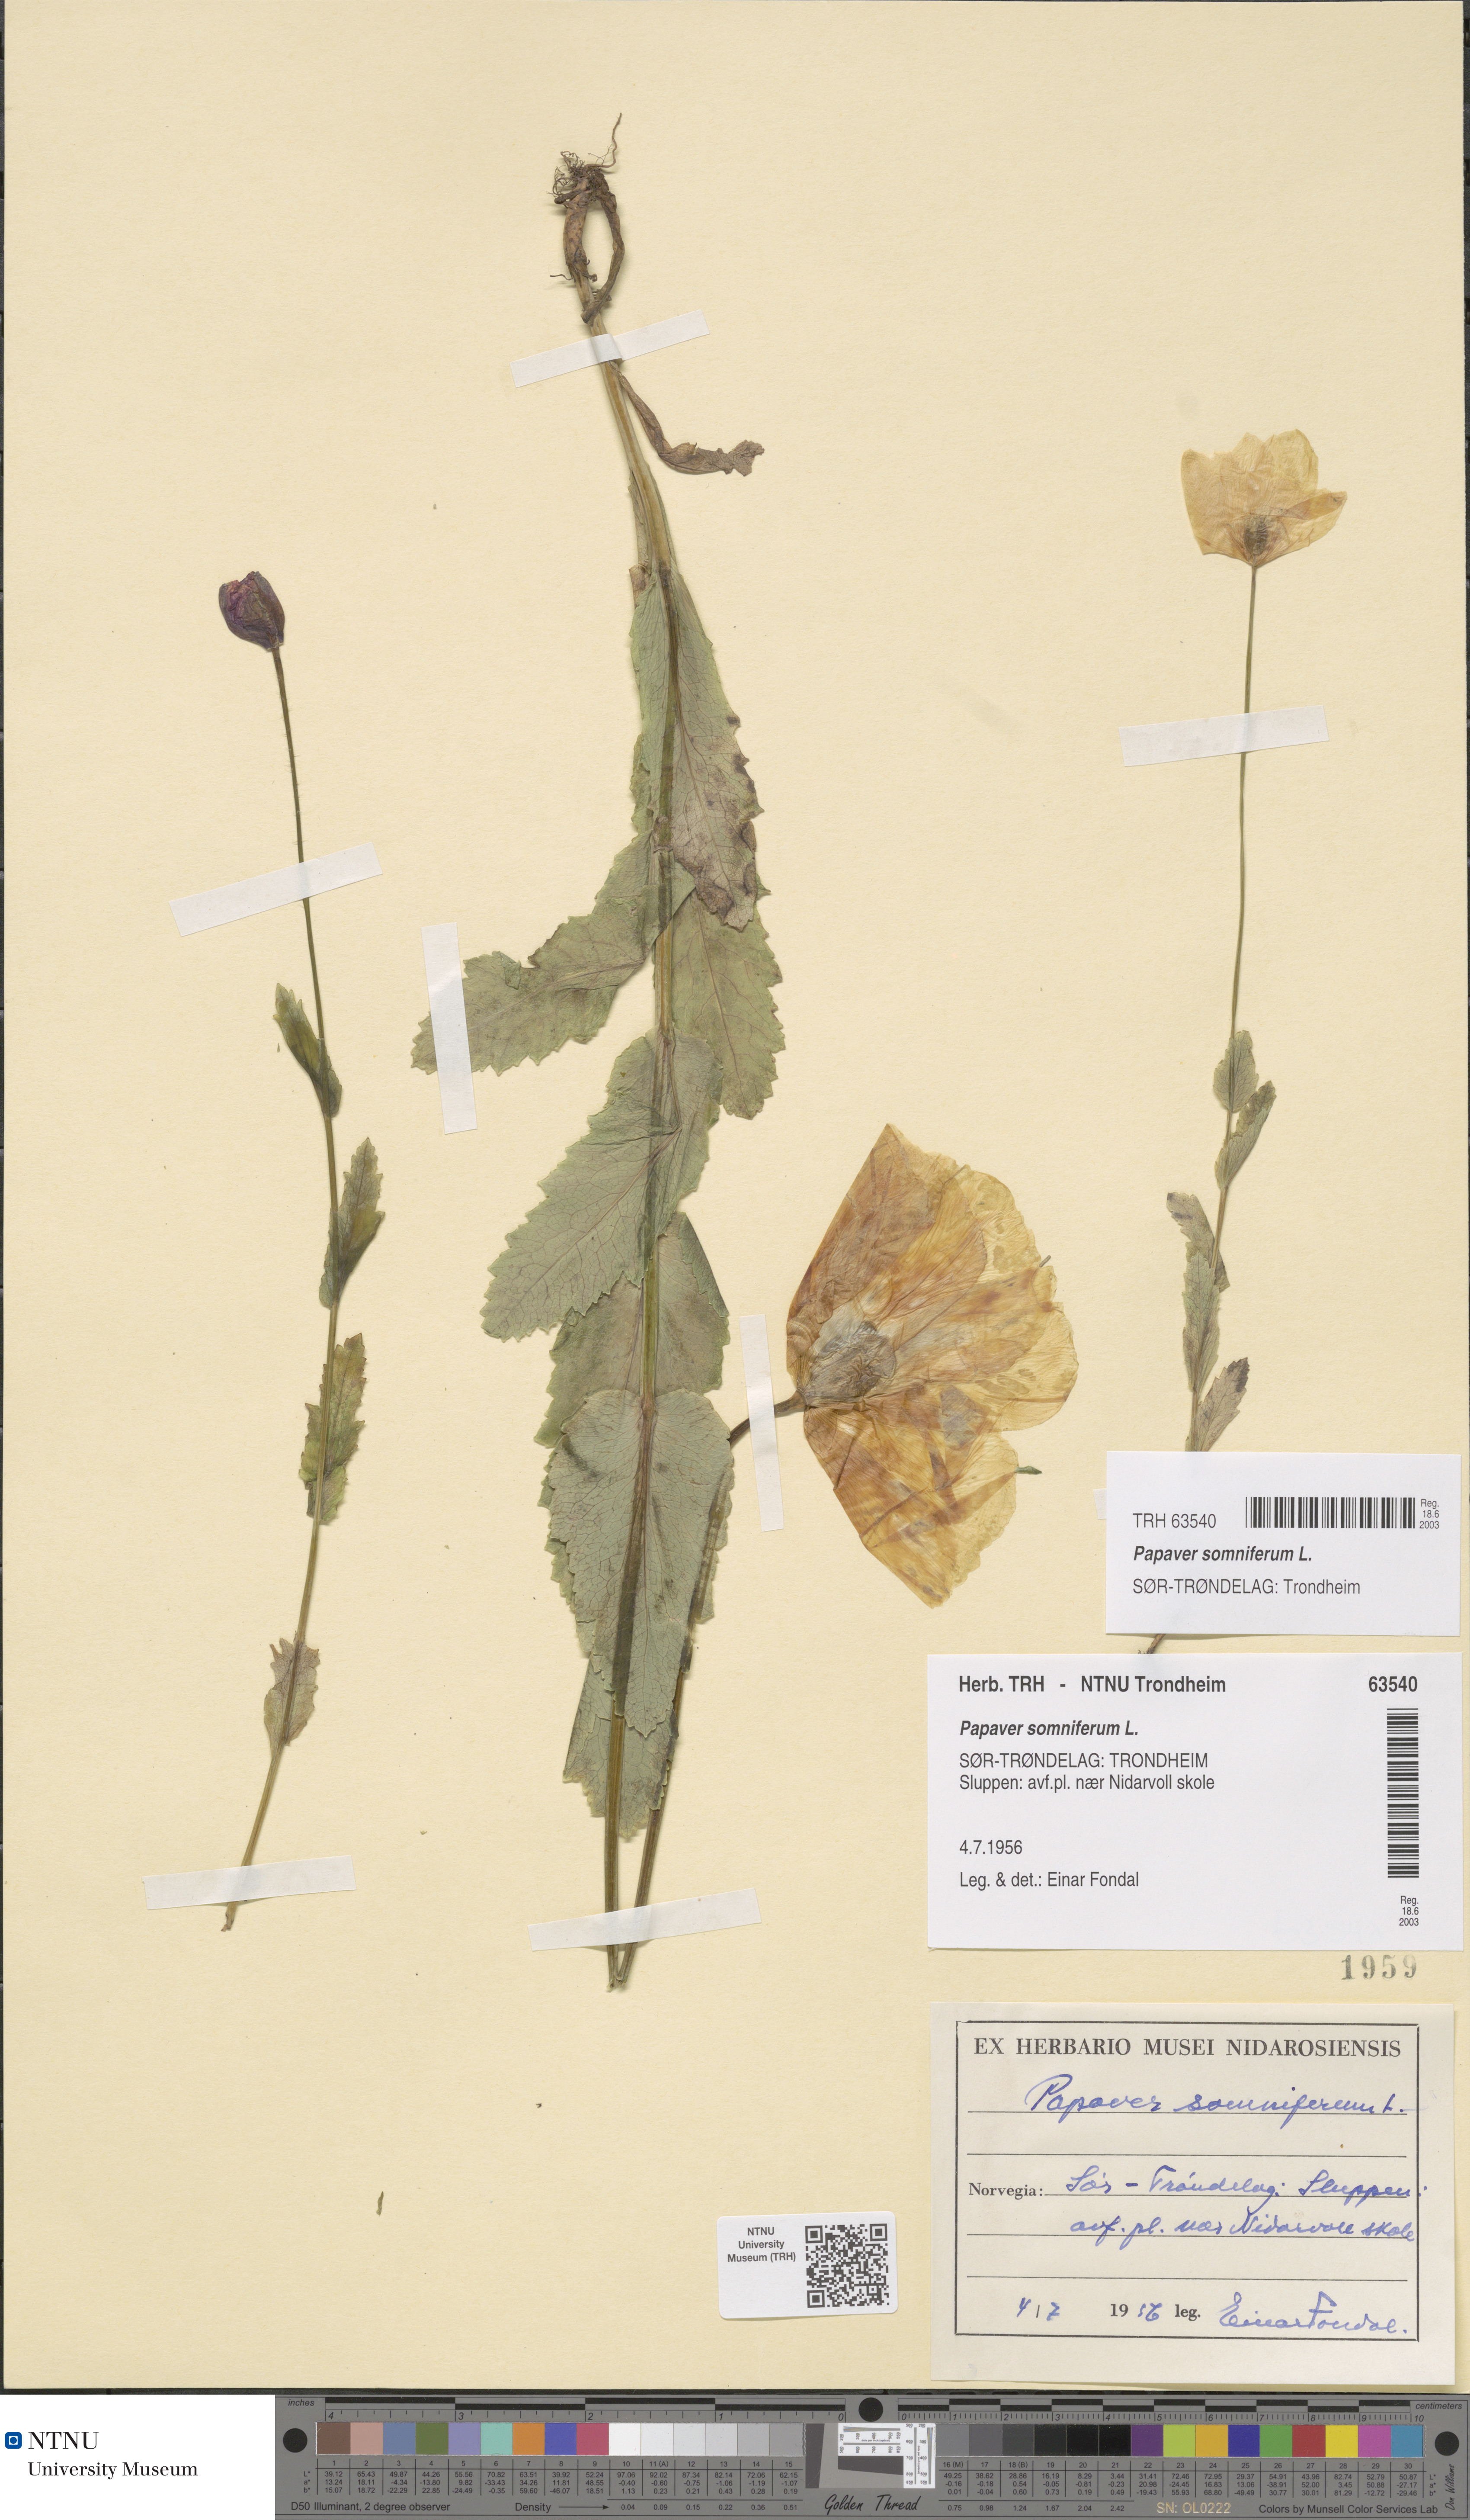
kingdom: Plantae
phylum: Tracheophyta
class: Magnoliopsida
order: Ranunculales
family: Papaveraceae
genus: Papaver
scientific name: Papaver somniferum
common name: Opium poppy
